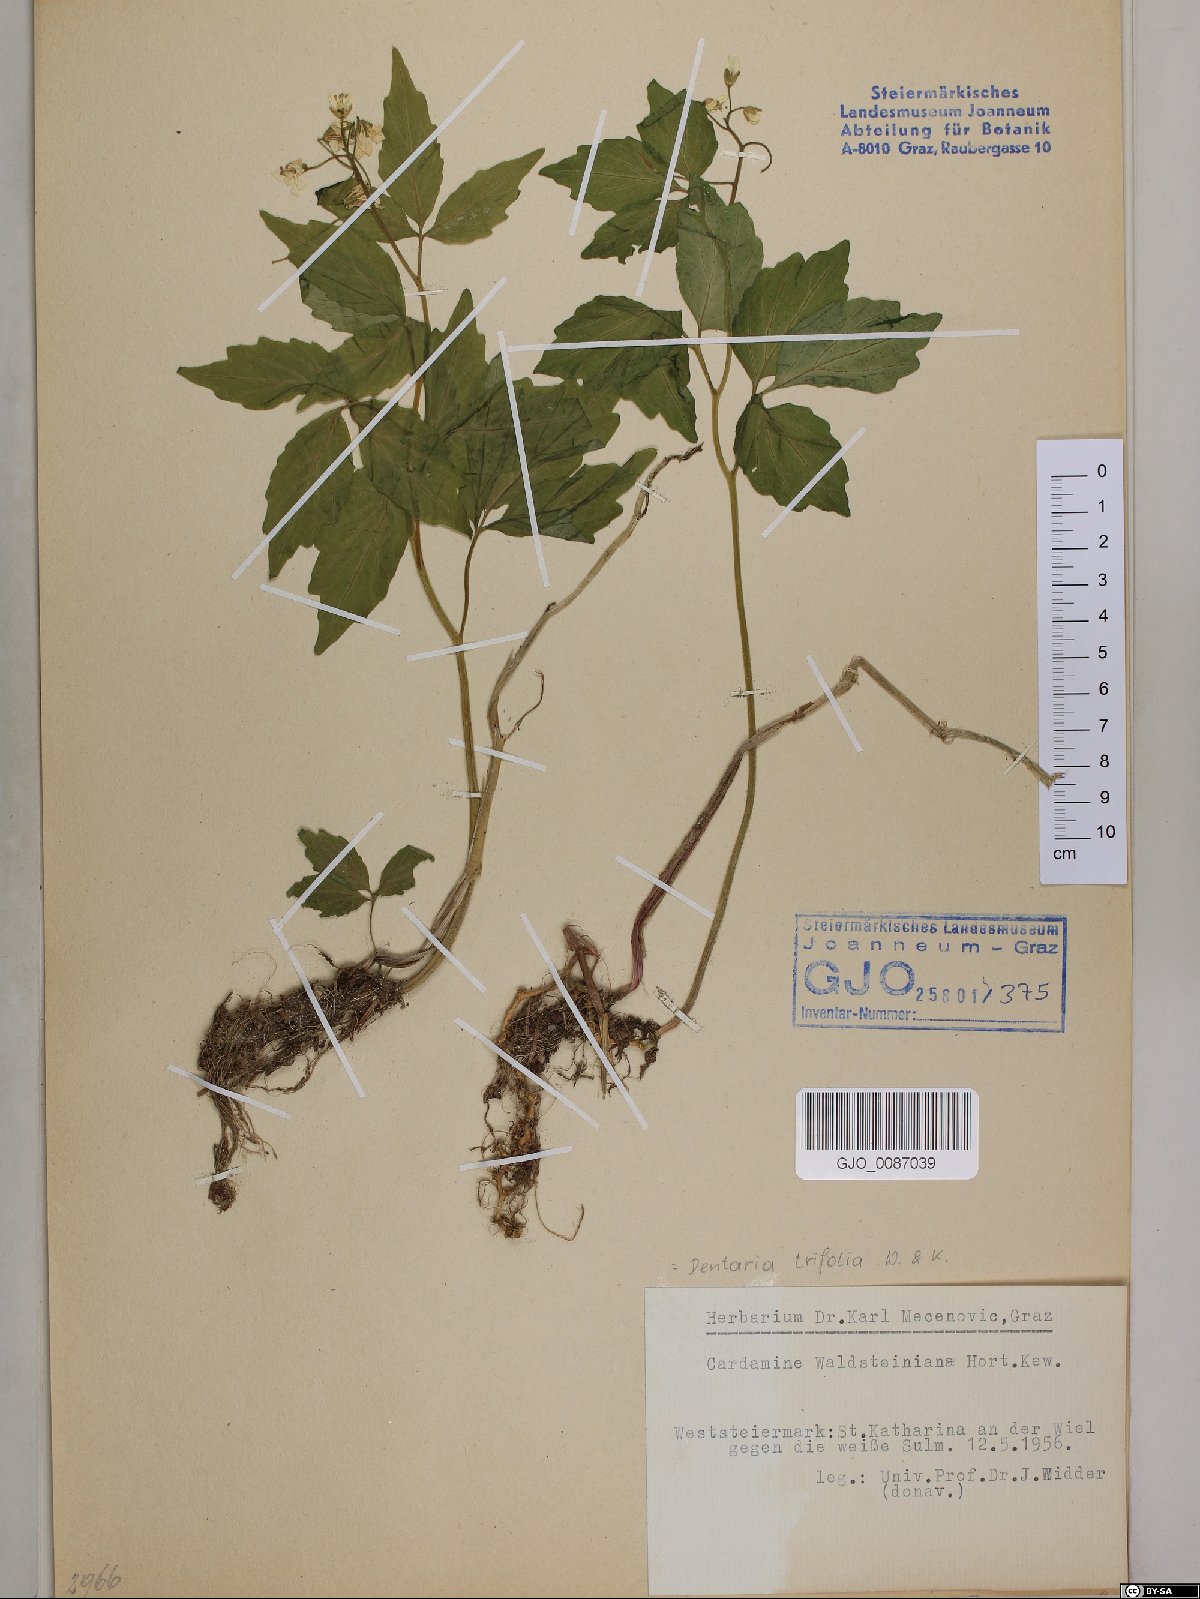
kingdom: Plantae
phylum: Tracheophyta
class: Magnoliopsida
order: Brassicales
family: Brassicaceae
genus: Cardamine
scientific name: Cardamine waldsteinii
